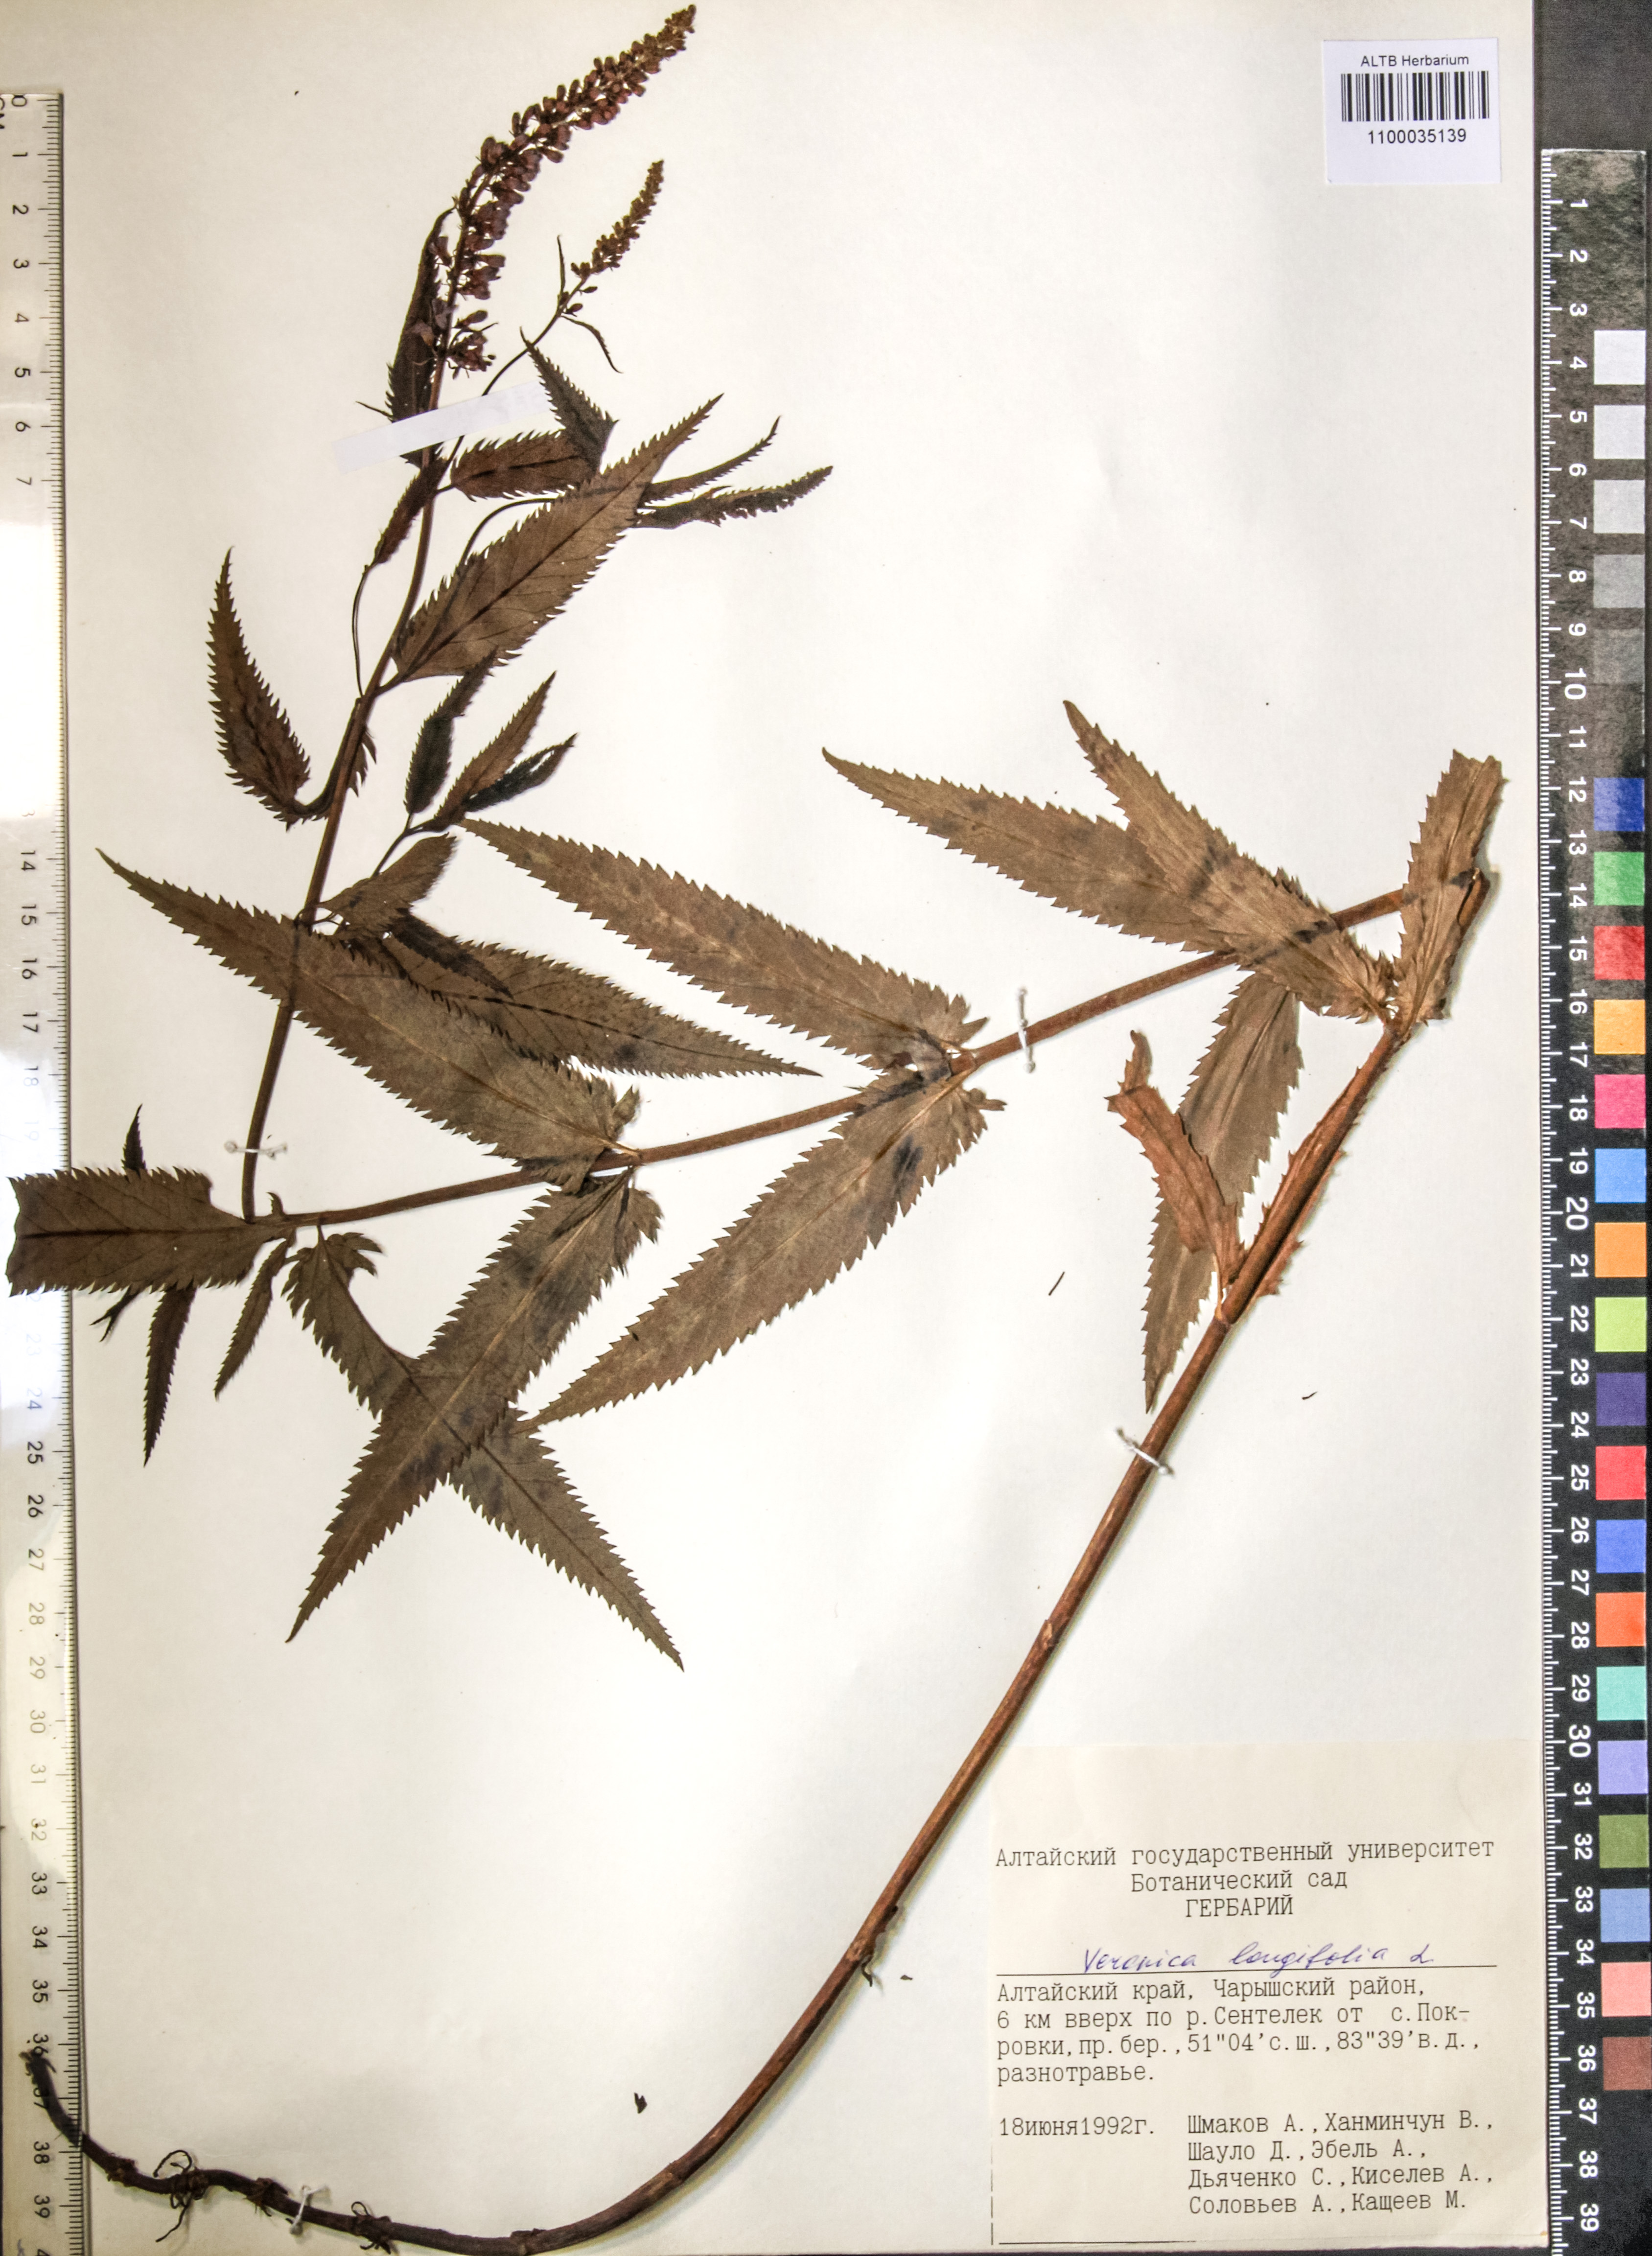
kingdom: Plantae
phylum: Tracheophyta
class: Magnoliopsida
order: Lamiales
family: Plantaginaceae
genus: Veronica
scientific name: Veronica longifolia
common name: Garden speedwell
